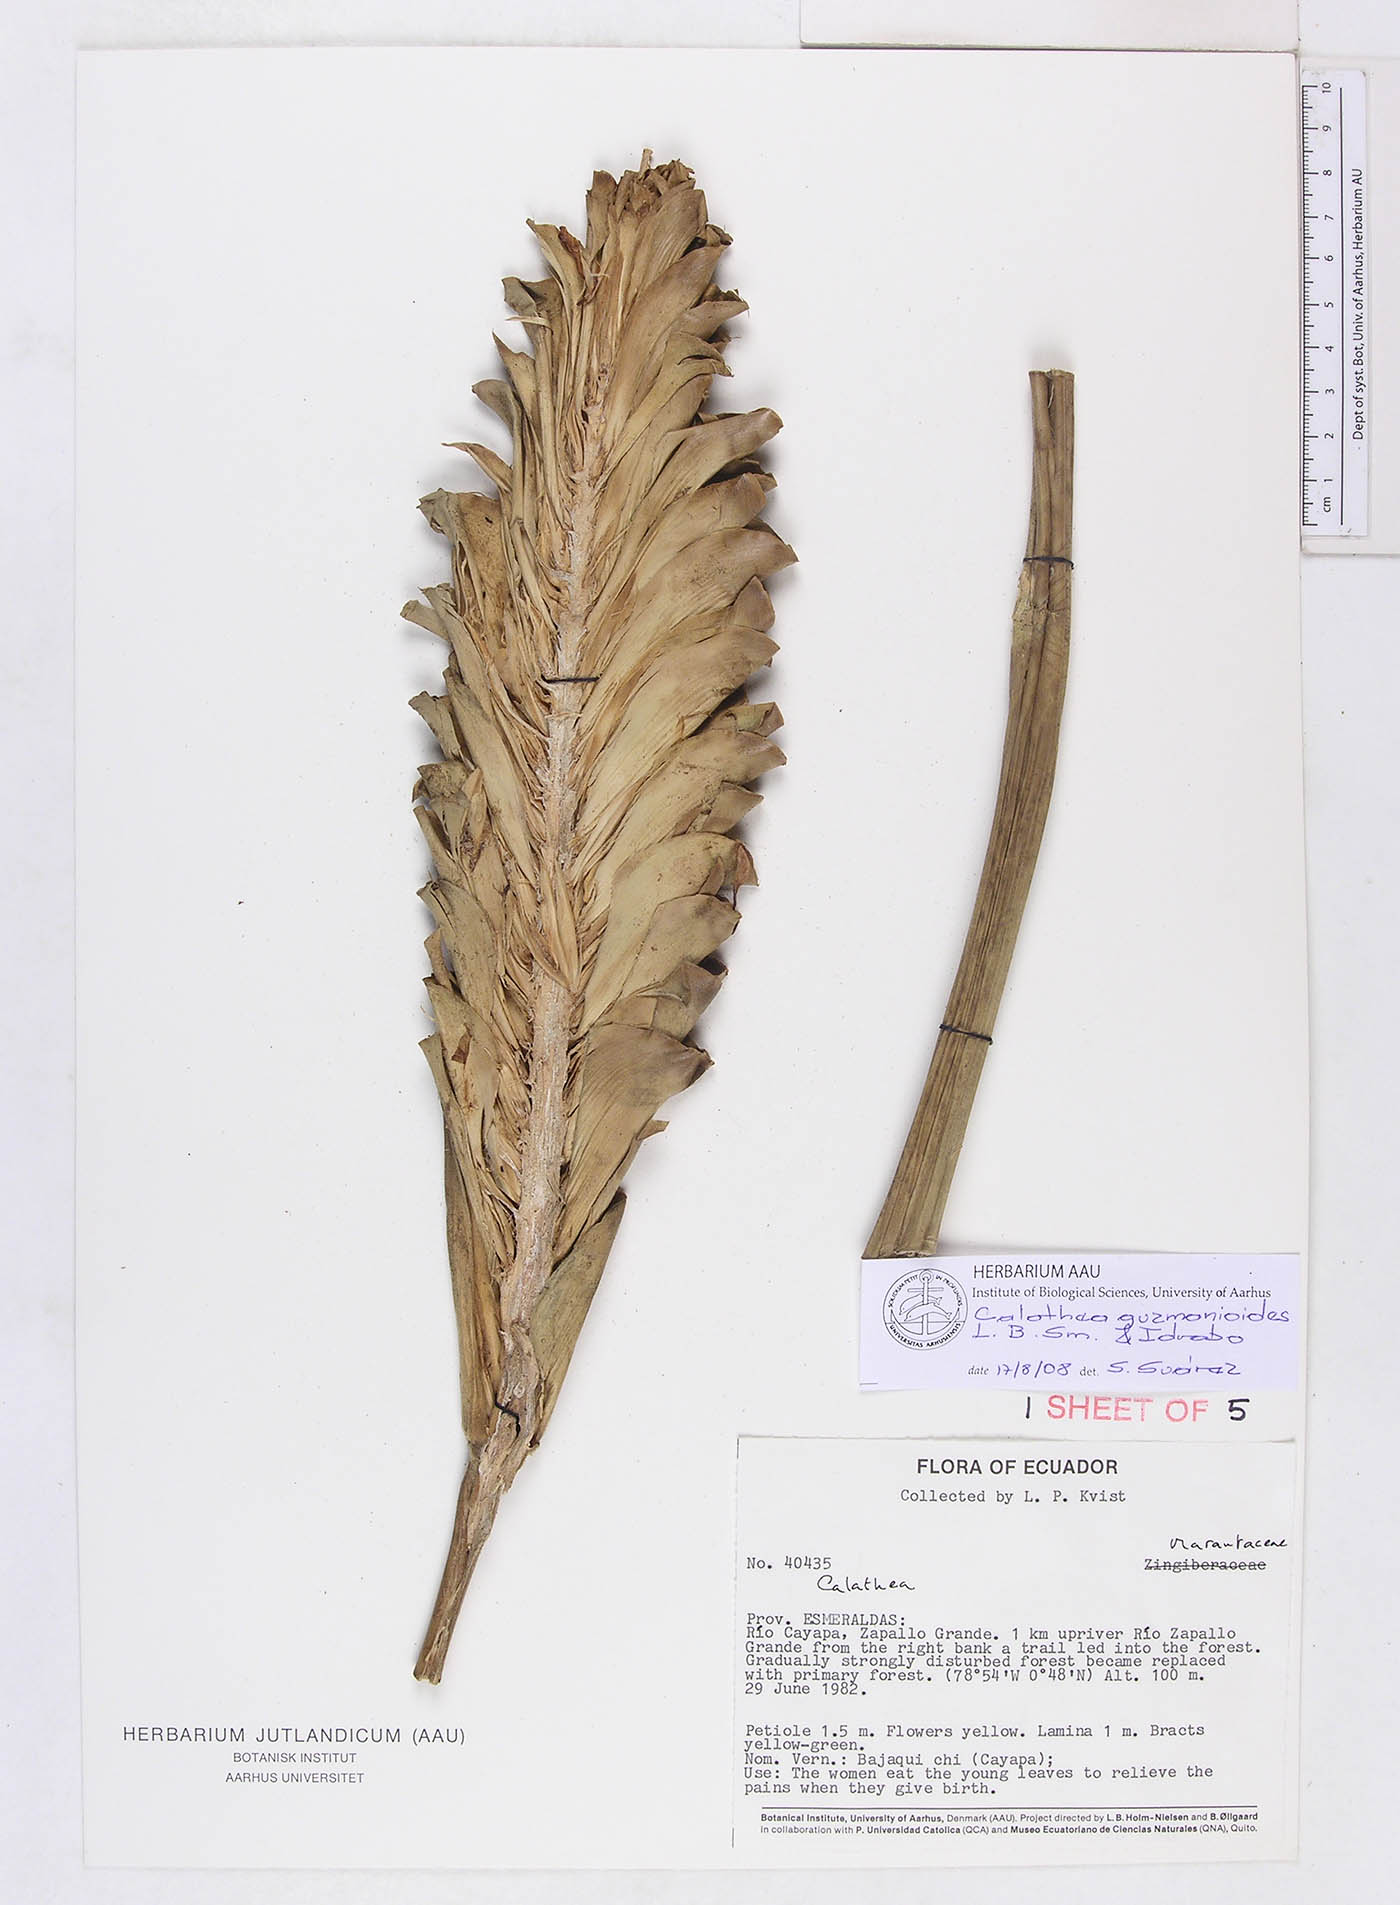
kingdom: Plantae
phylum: Tracheophyta
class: Liliopsida
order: Zingiberales
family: Marantaceae
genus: Calathea
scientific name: Calathea guzmanioides
